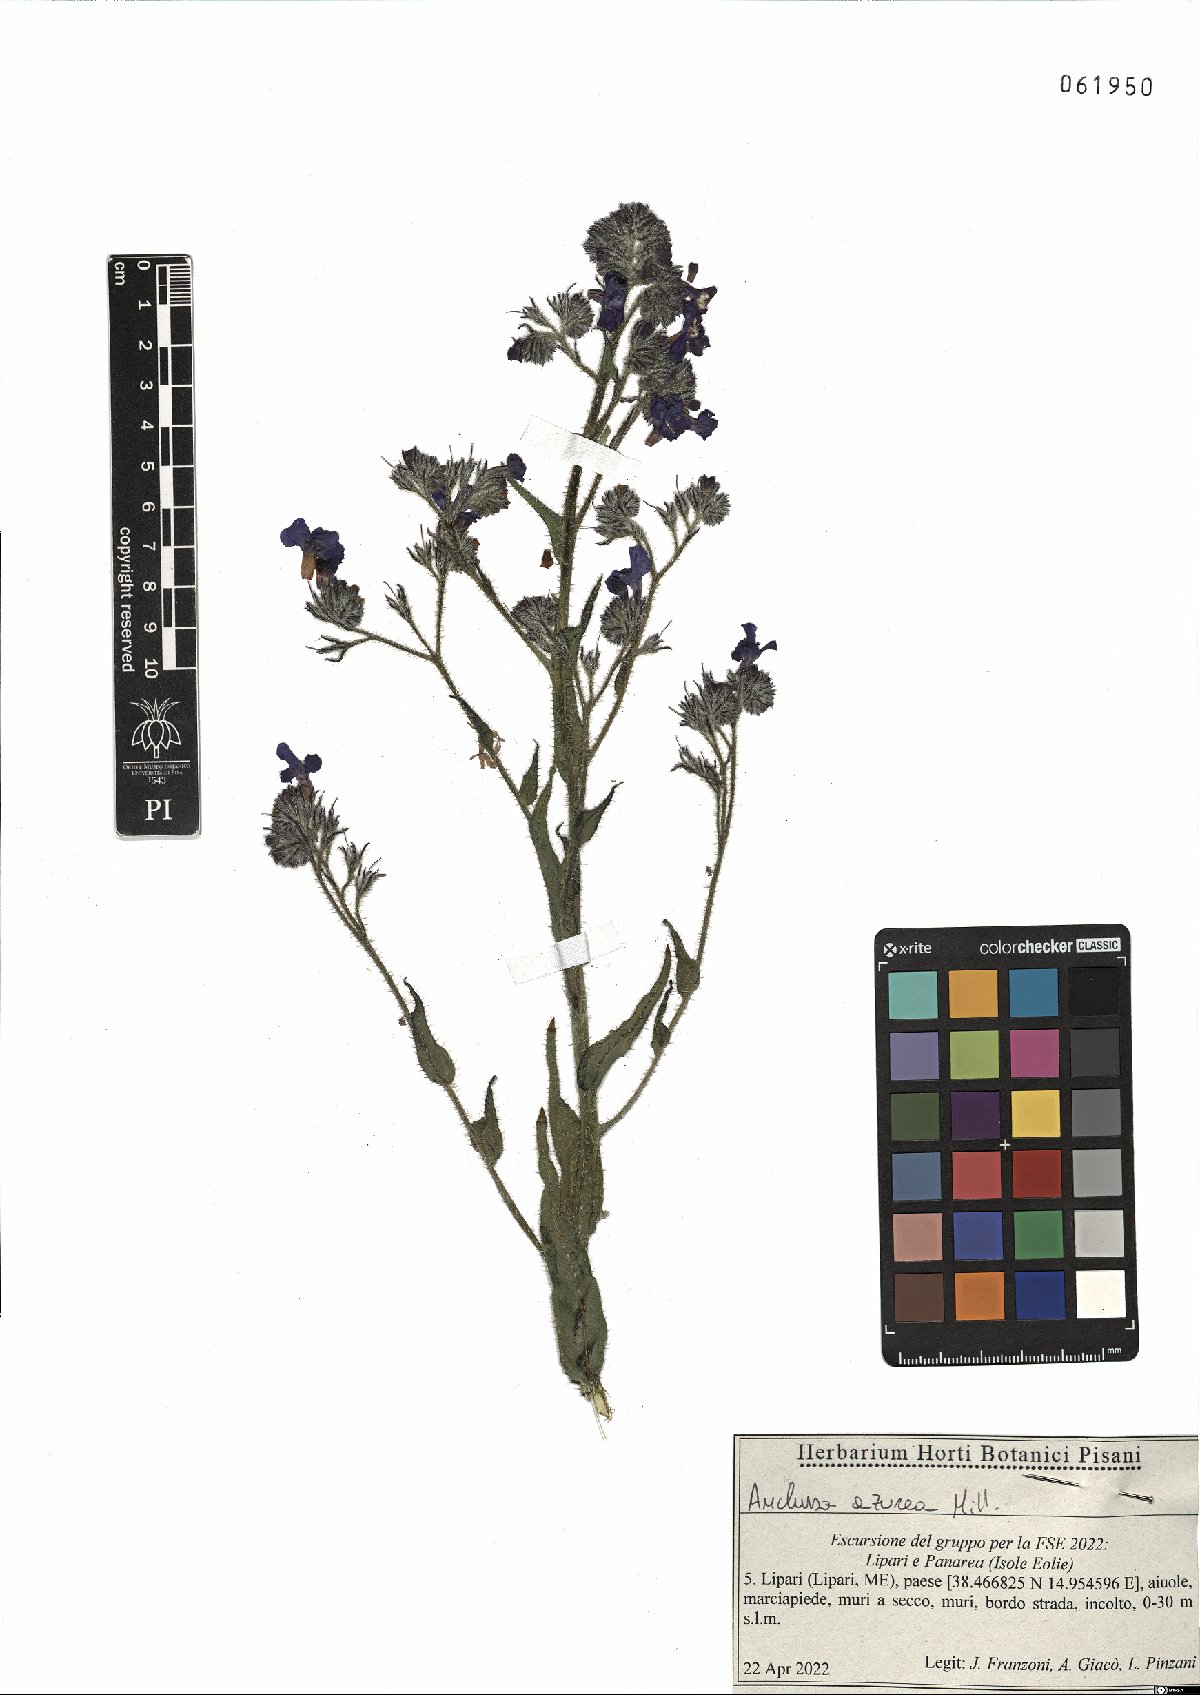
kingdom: Plantae
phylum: Tracheophyta
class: Magnoliopsida
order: Boraginales
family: Boraginaceae
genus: Anchusa
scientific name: Anchusa azurea
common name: Garden anchusa
